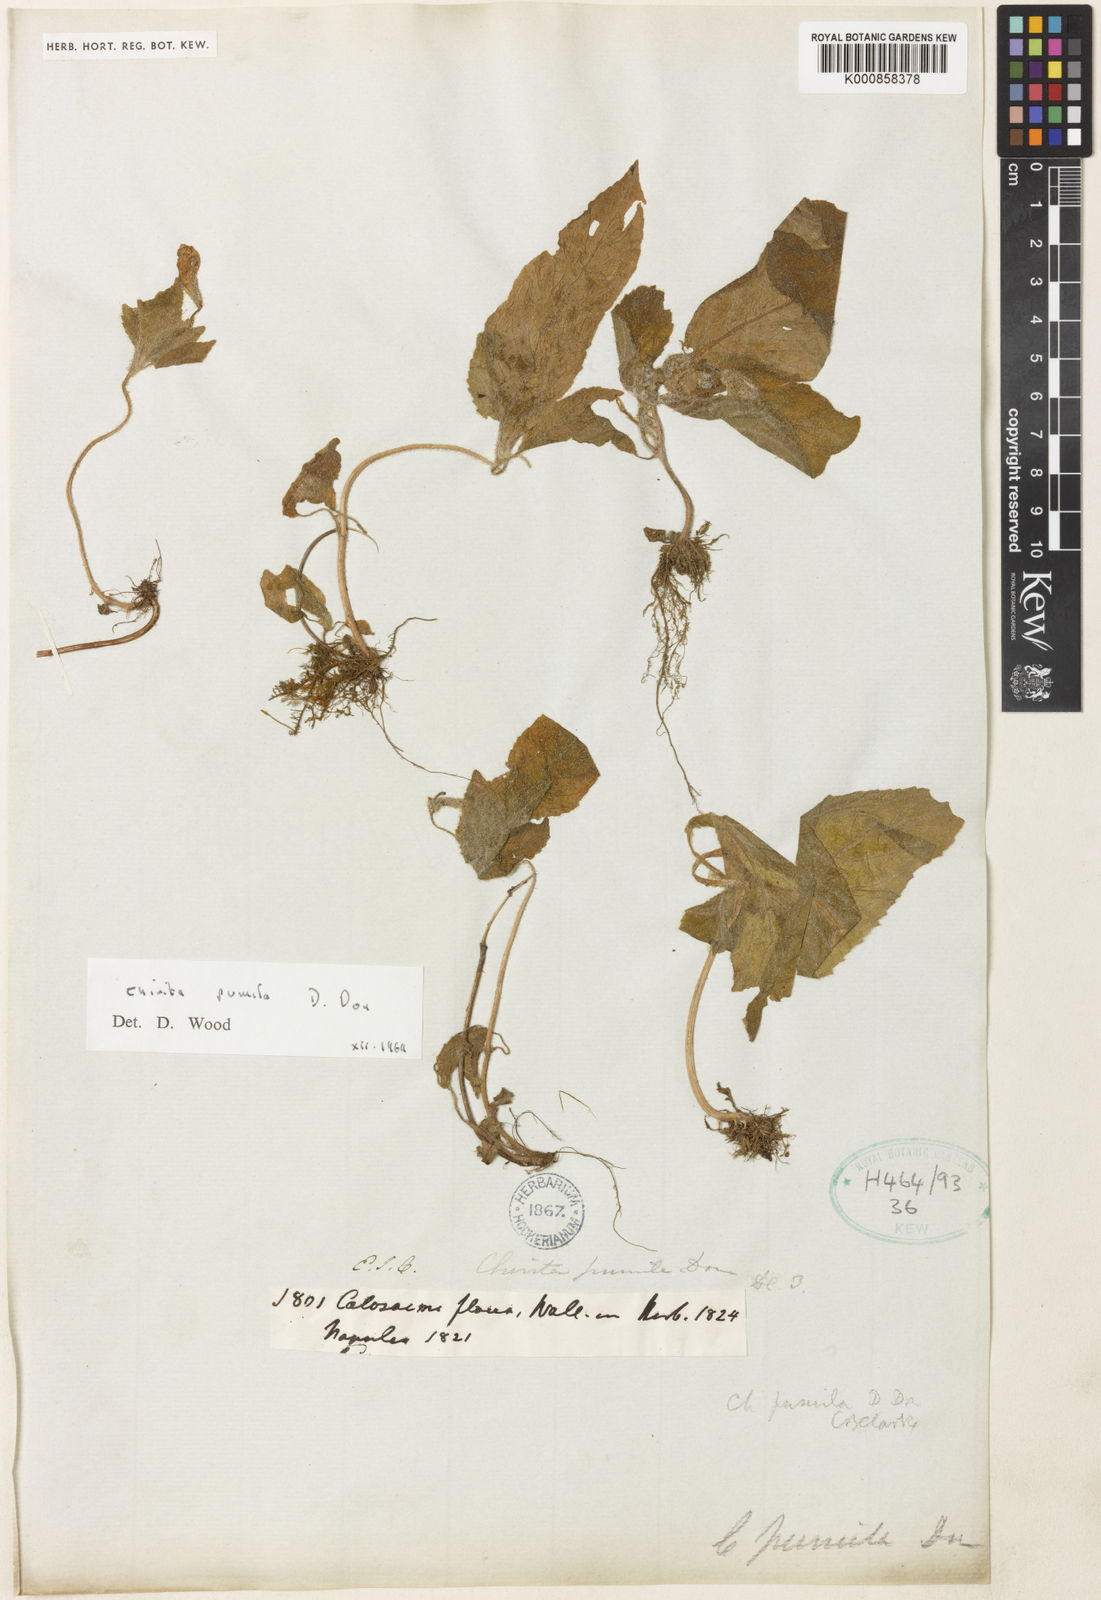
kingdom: Plantae
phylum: Tracheophyta
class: Magnoliopsida
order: Lamiales
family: Gesneriaceae
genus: Henckelia
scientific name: Henckelia pumila
